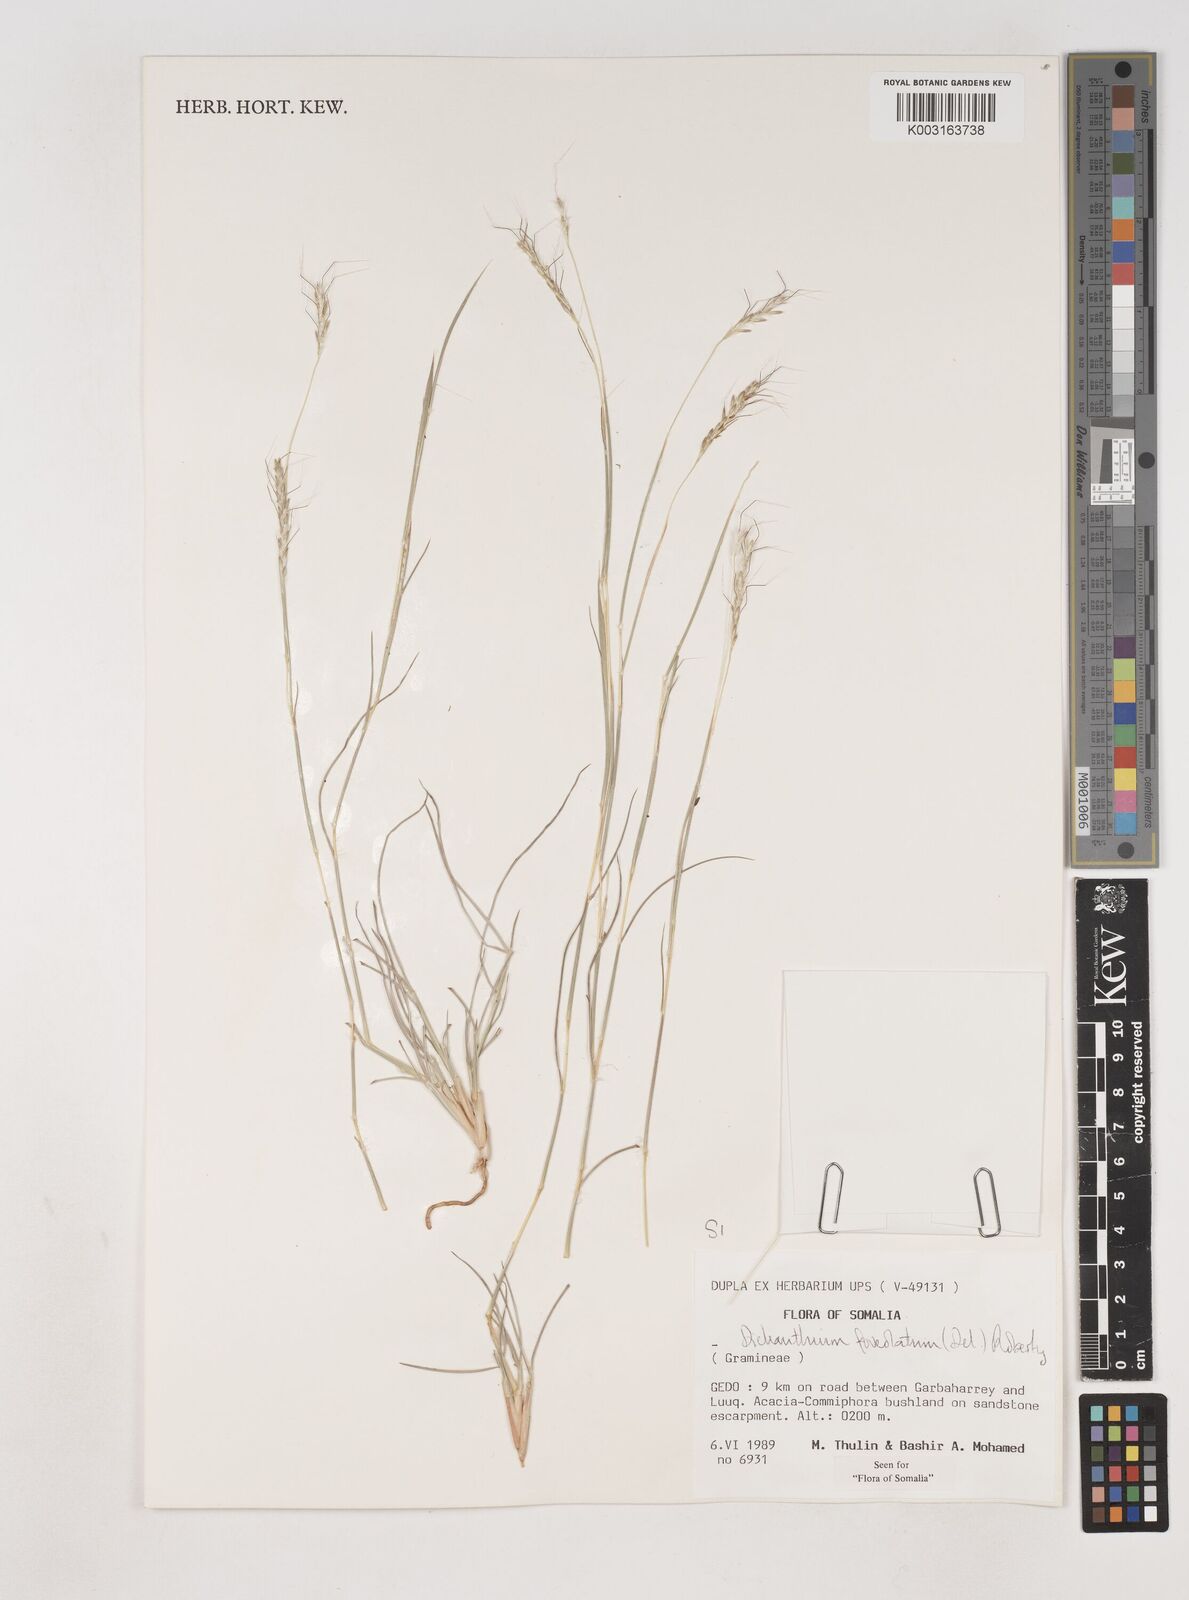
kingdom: Plantae
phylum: Tracheophyta
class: Liliopsida
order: Poales
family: Poaceae
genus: Dichanthium
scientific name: Dichanthium foveolatum
